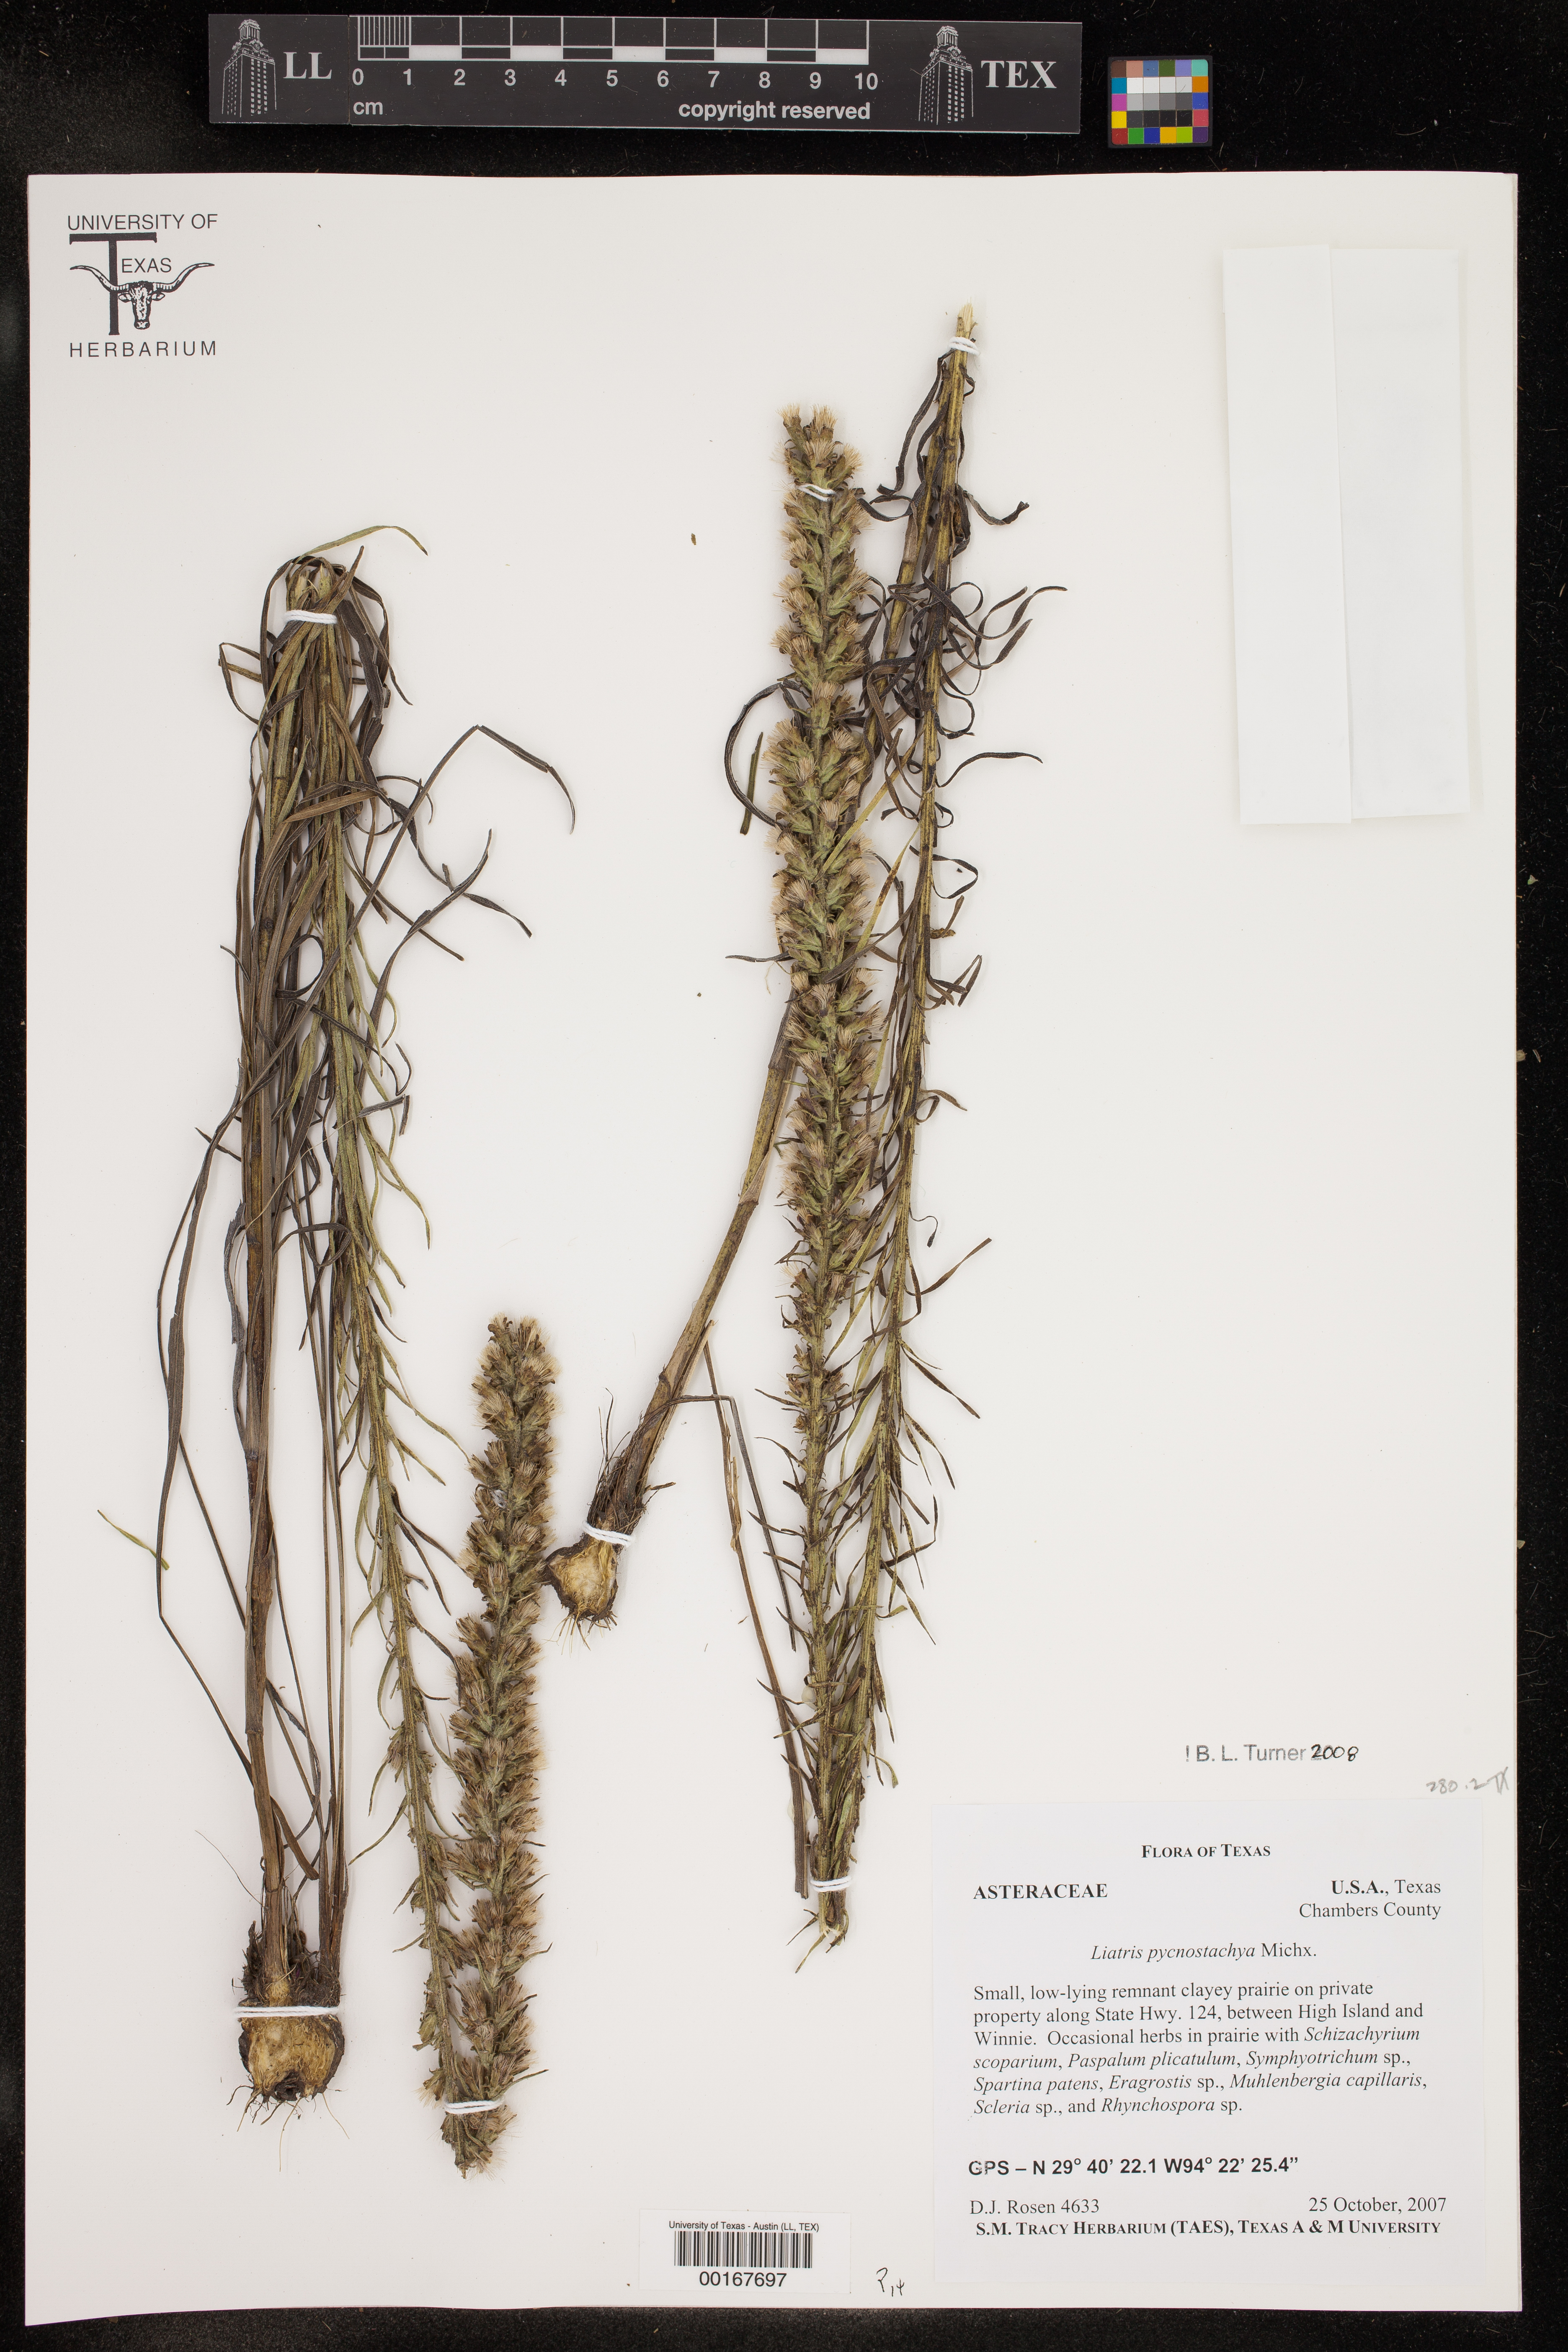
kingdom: Plantae
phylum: Tracheophyta
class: Magnoliopsida
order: Asterales
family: Asteraceae
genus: Liatris
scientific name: Liatris pycnostachya
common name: Cattail gayfeather
